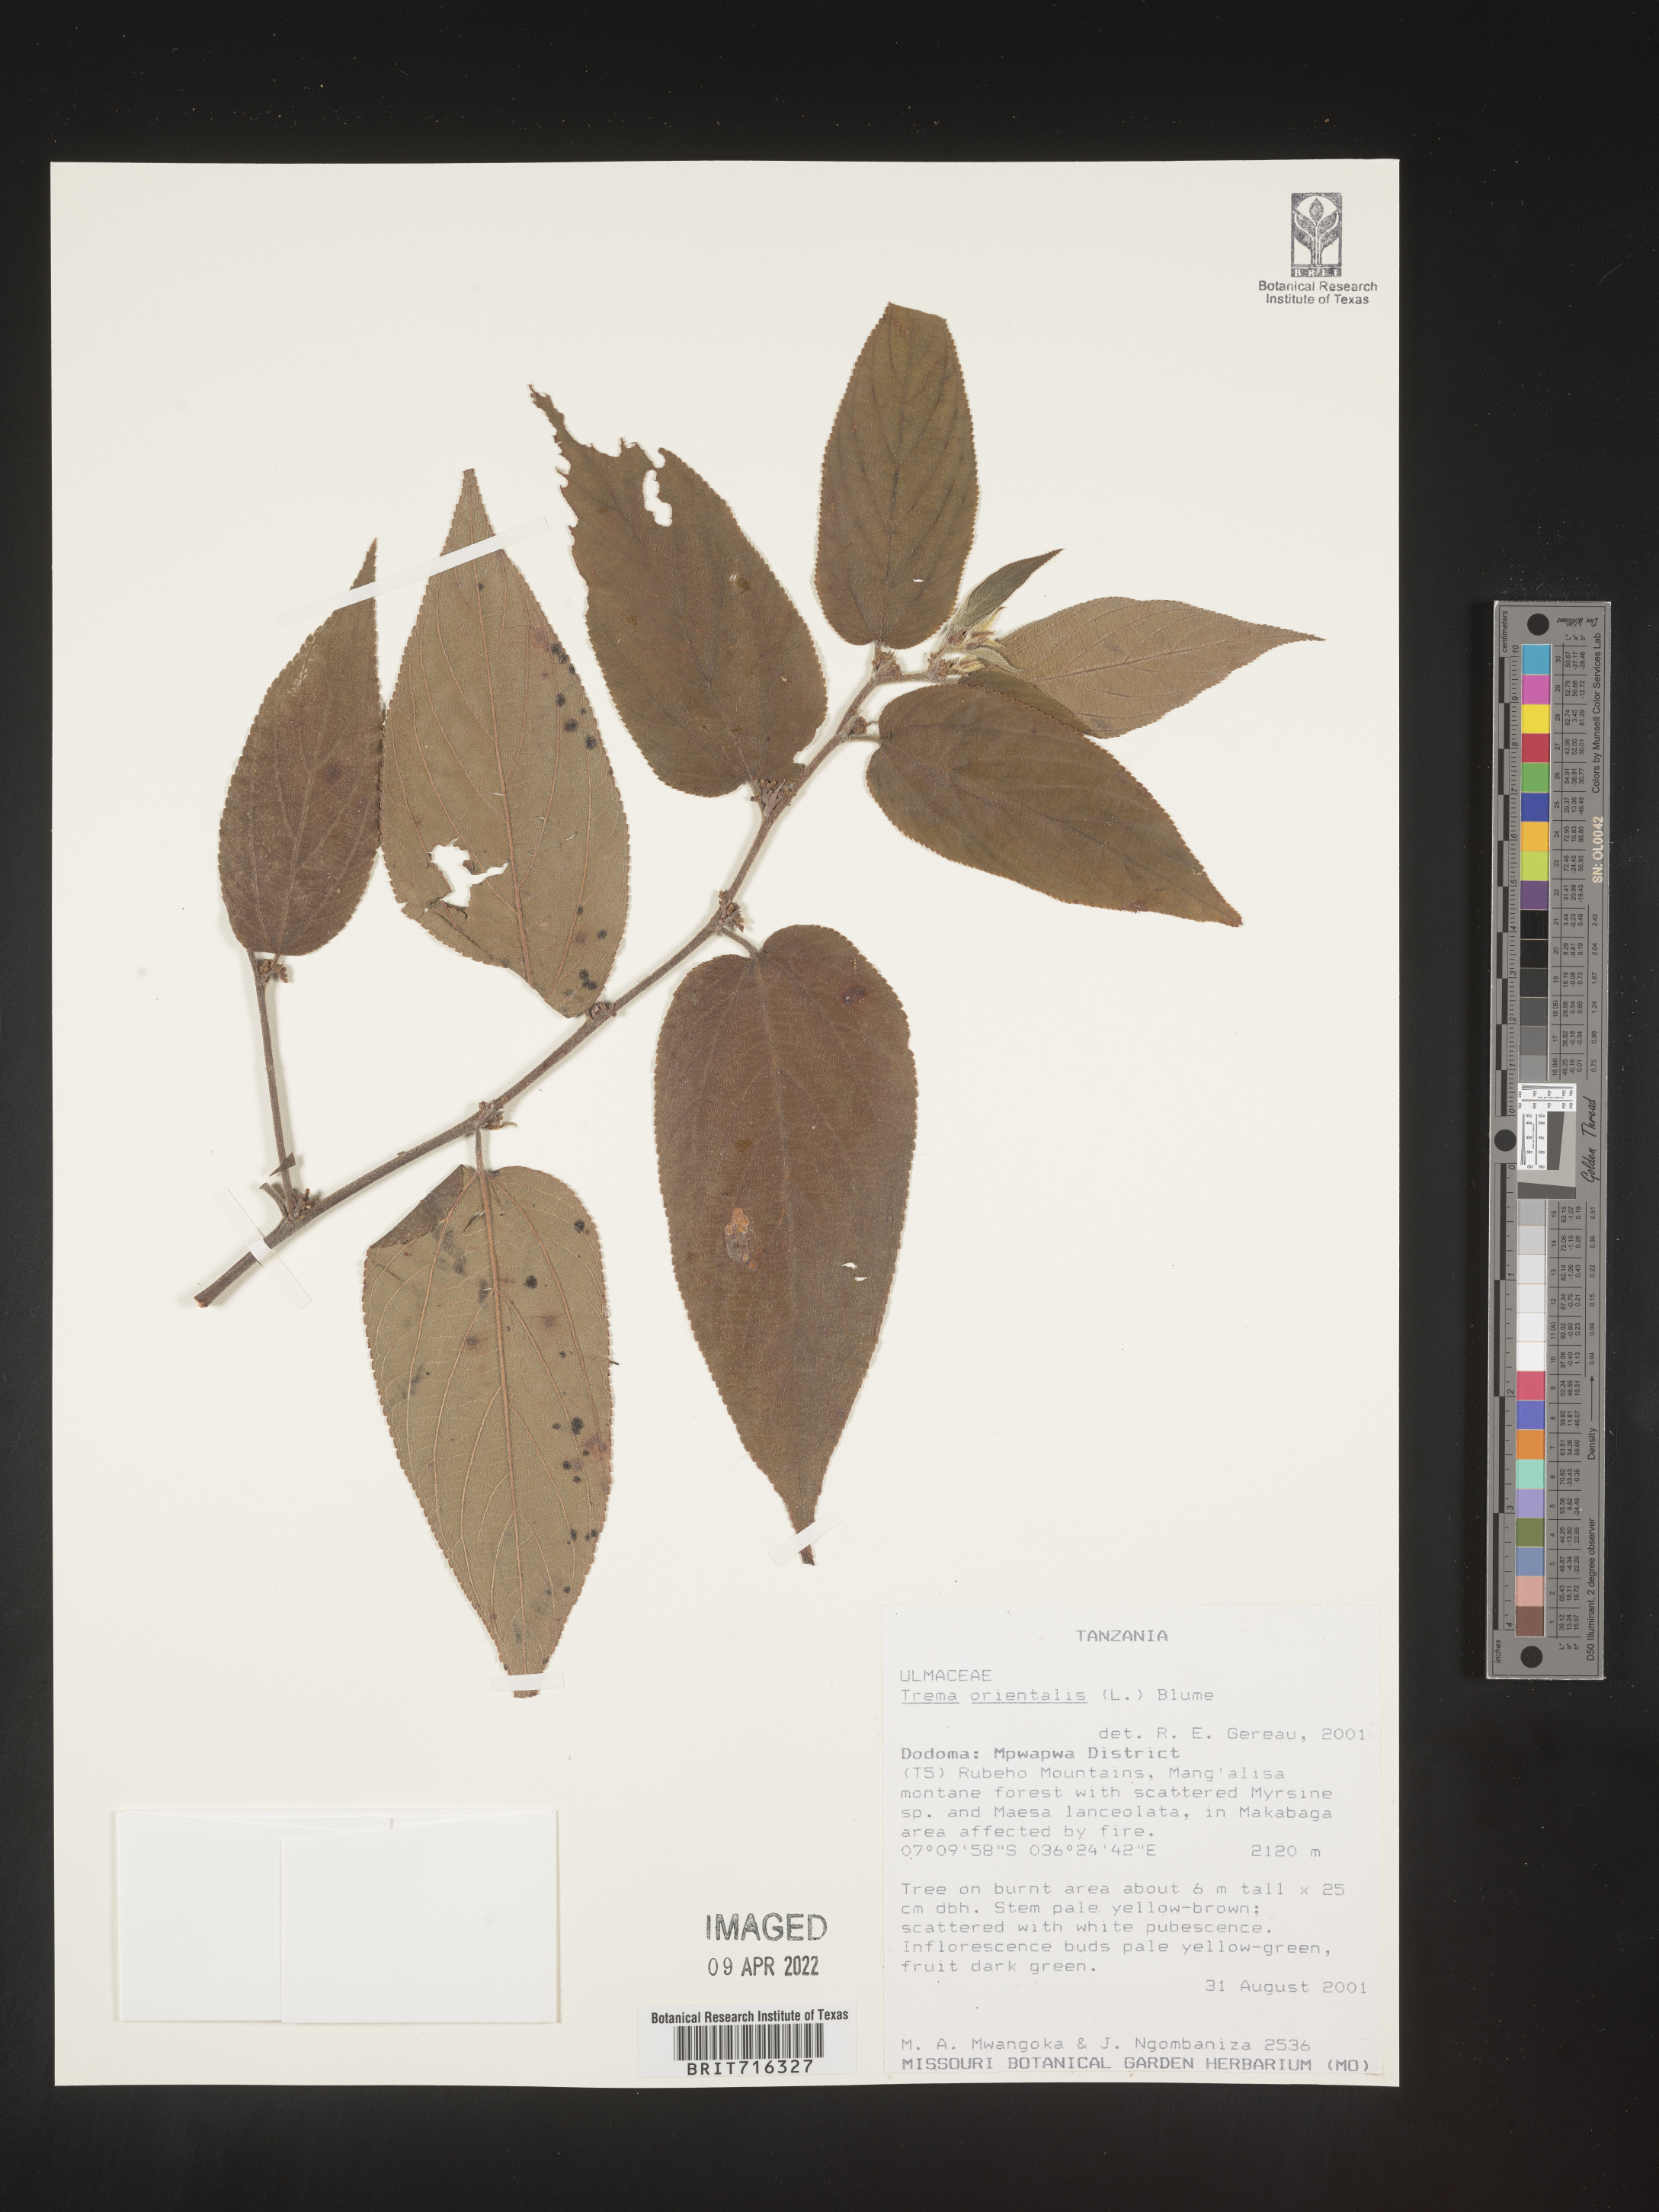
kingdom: Plantae
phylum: Tracheophyta
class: Magnoliopsida
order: Rosales
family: Cannabaceae
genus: Trema
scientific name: Trema
